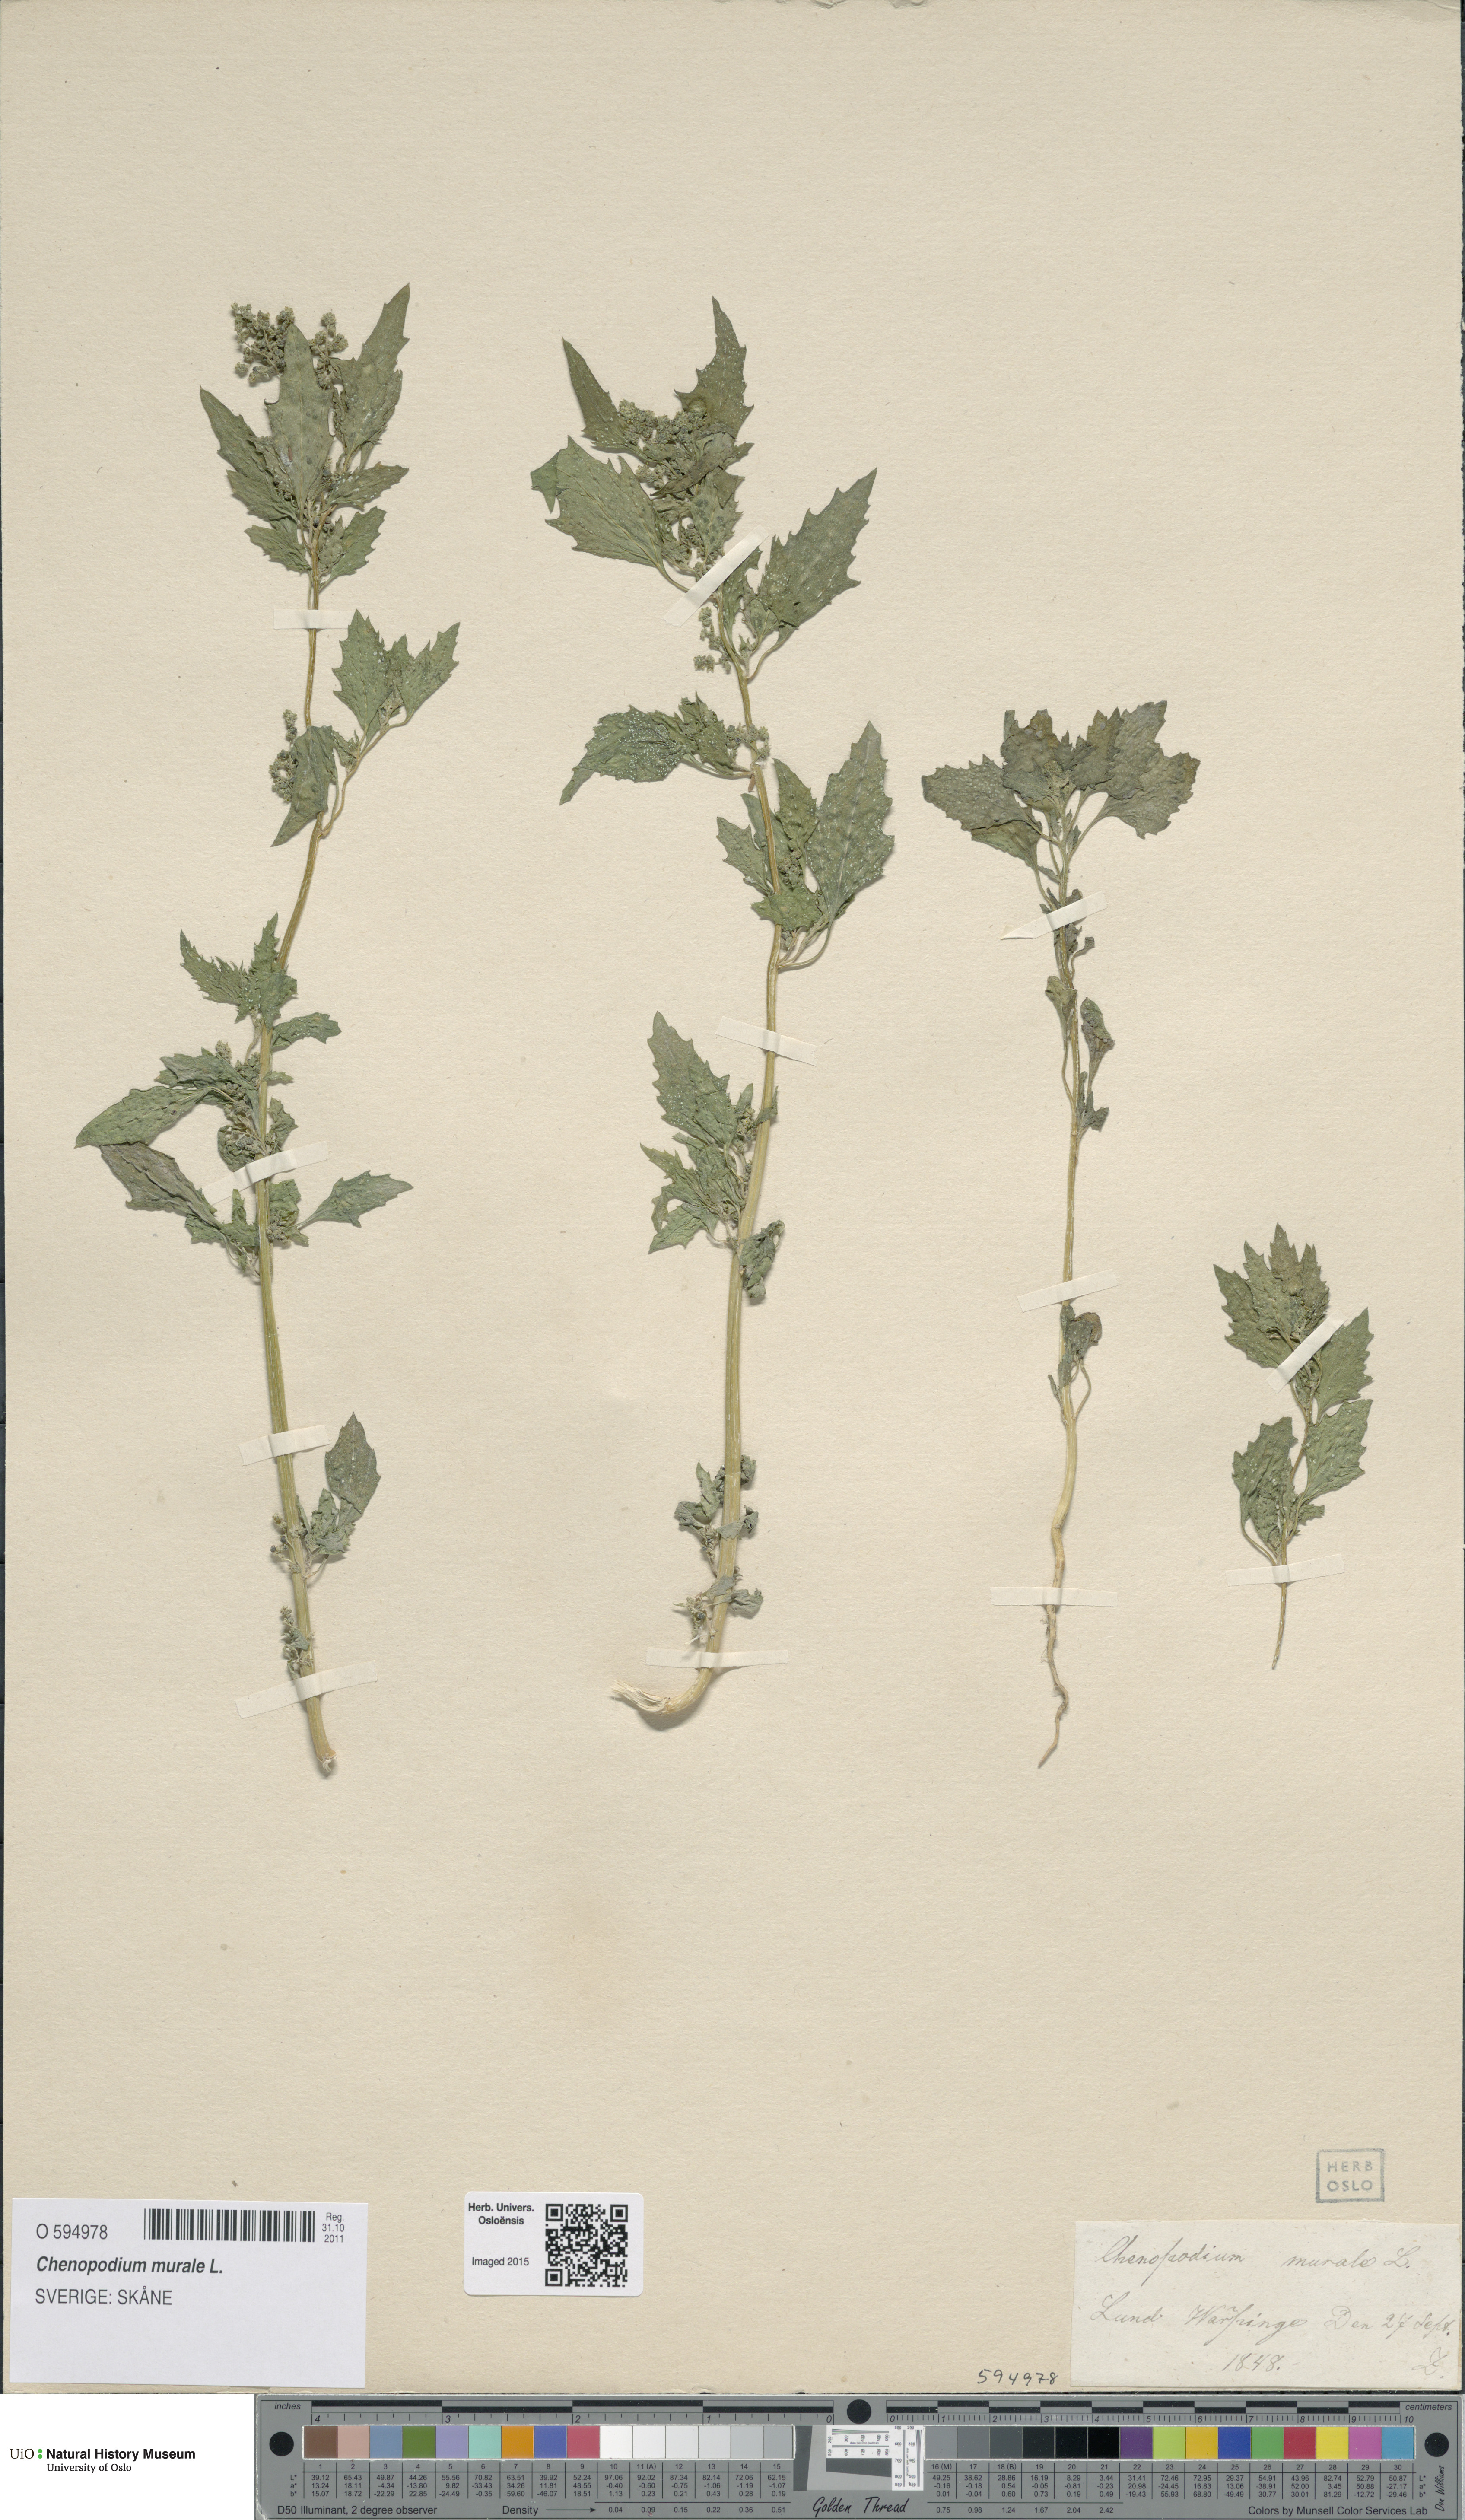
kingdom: Plantae
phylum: Tracheophyta
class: Magnoliopsida
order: Caryophyllales
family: Amaranthaceae
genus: Chenopodiastrum
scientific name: Chenopodiastrum murale
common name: Sowbane
